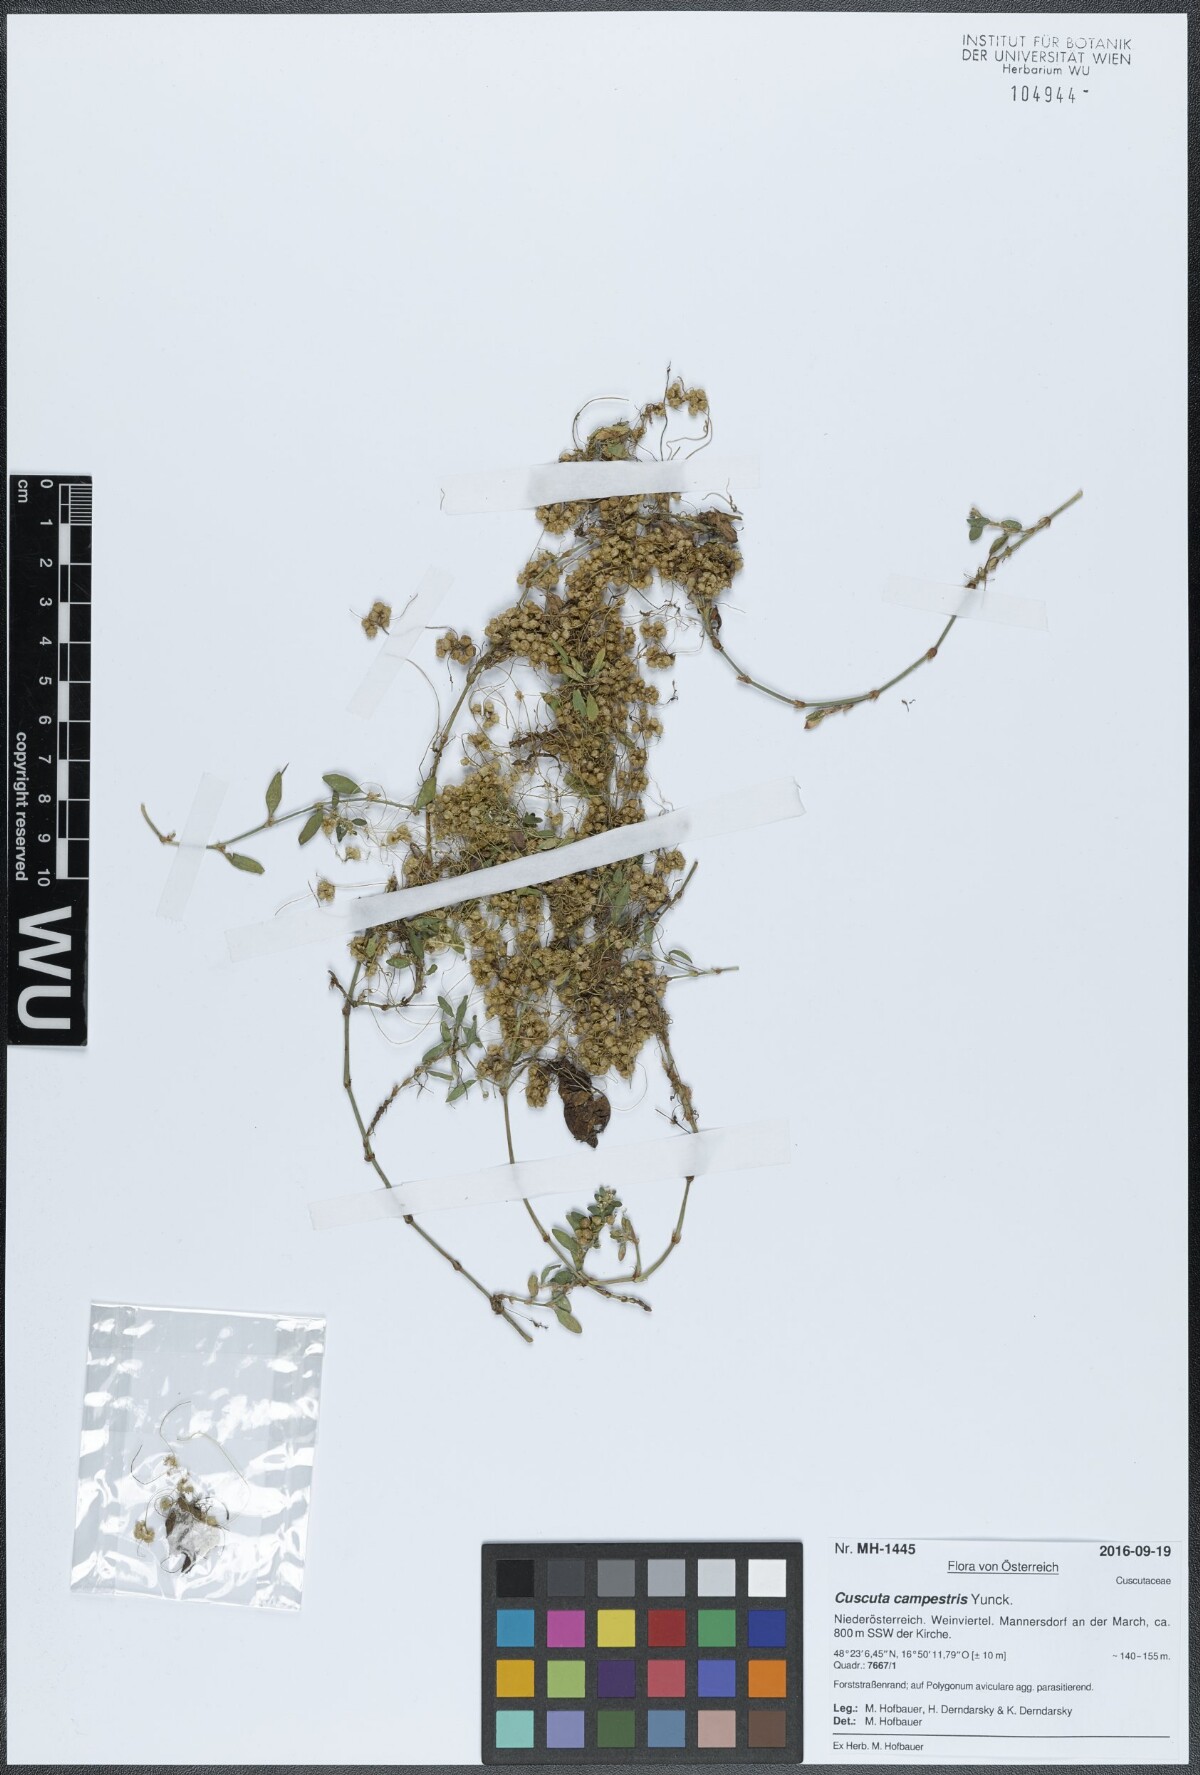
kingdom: Plantae
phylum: Tracheophyta
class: Magnoliopsida
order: Solanales
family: Convolvulaceae
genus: Cuscuta
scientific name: Cuscuta campestris
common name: Yellow dodder
